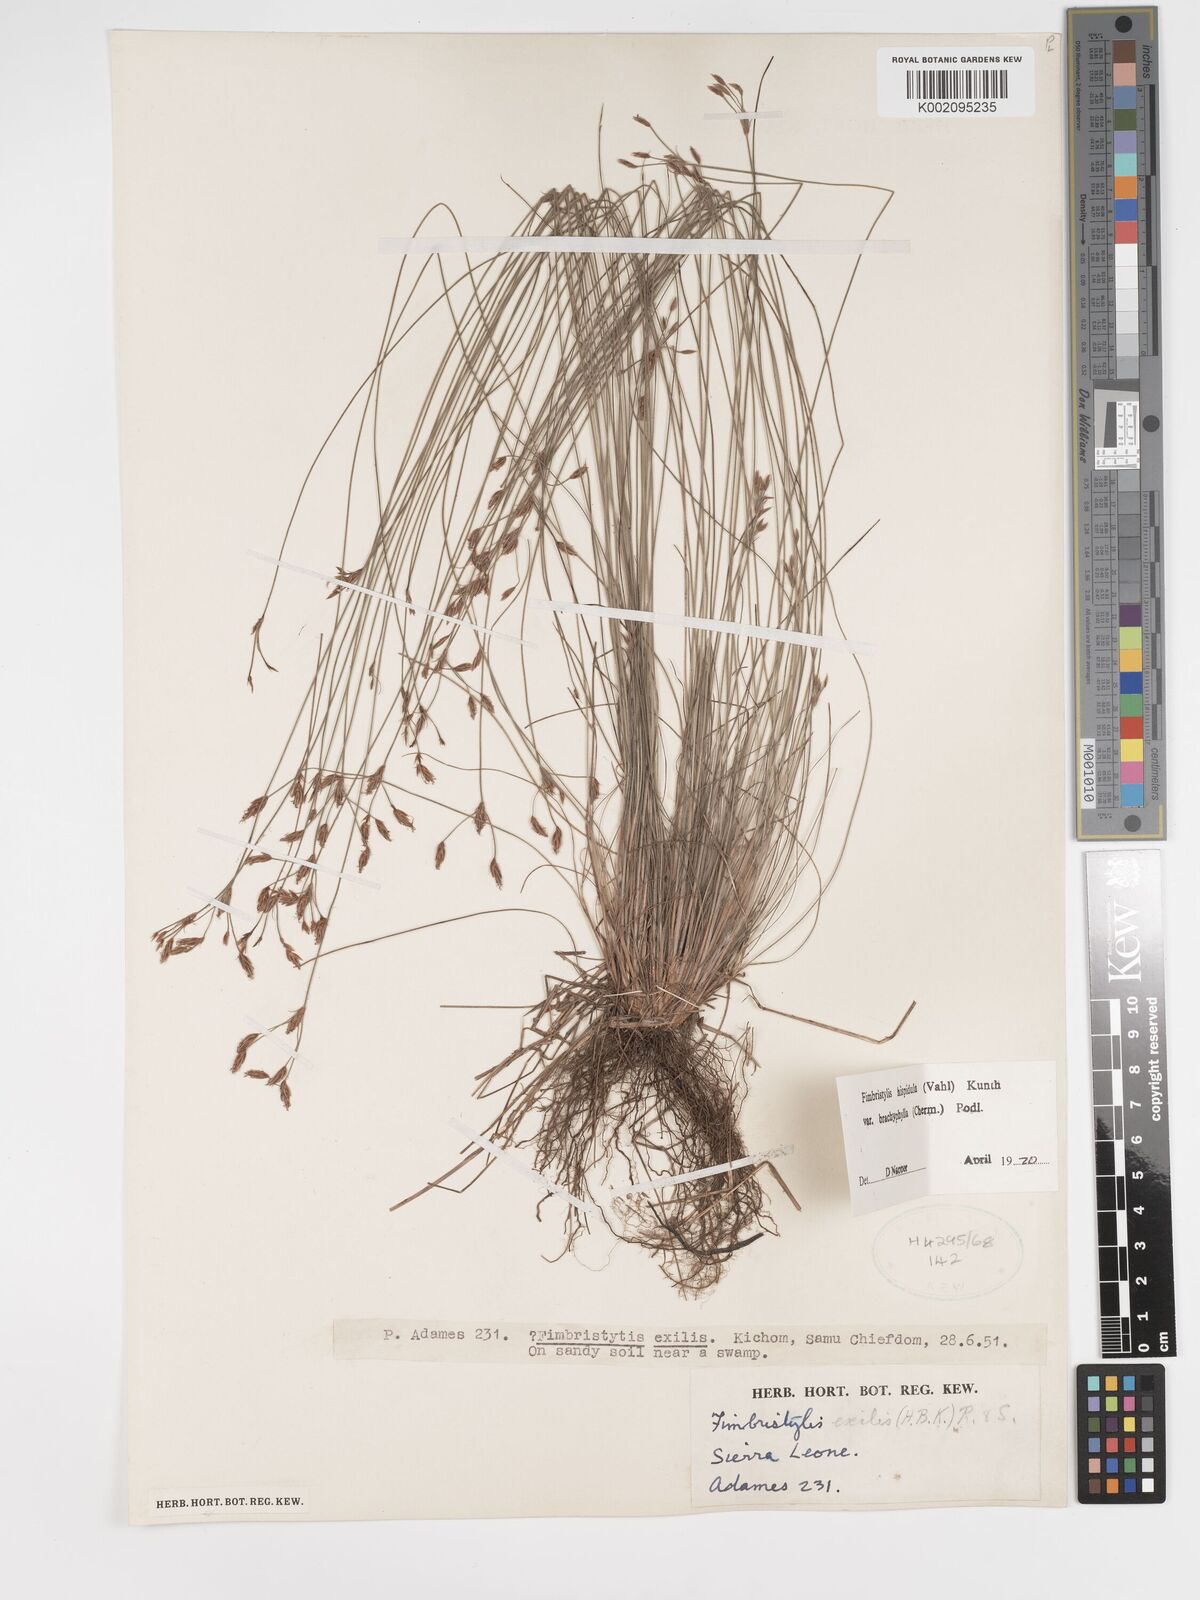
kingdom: Plantae
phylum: Tracheophyta
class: Liliopsida
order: Poales
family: Cyperaceae
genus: Bulbostylis
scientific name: Bulbostylis hispidula
